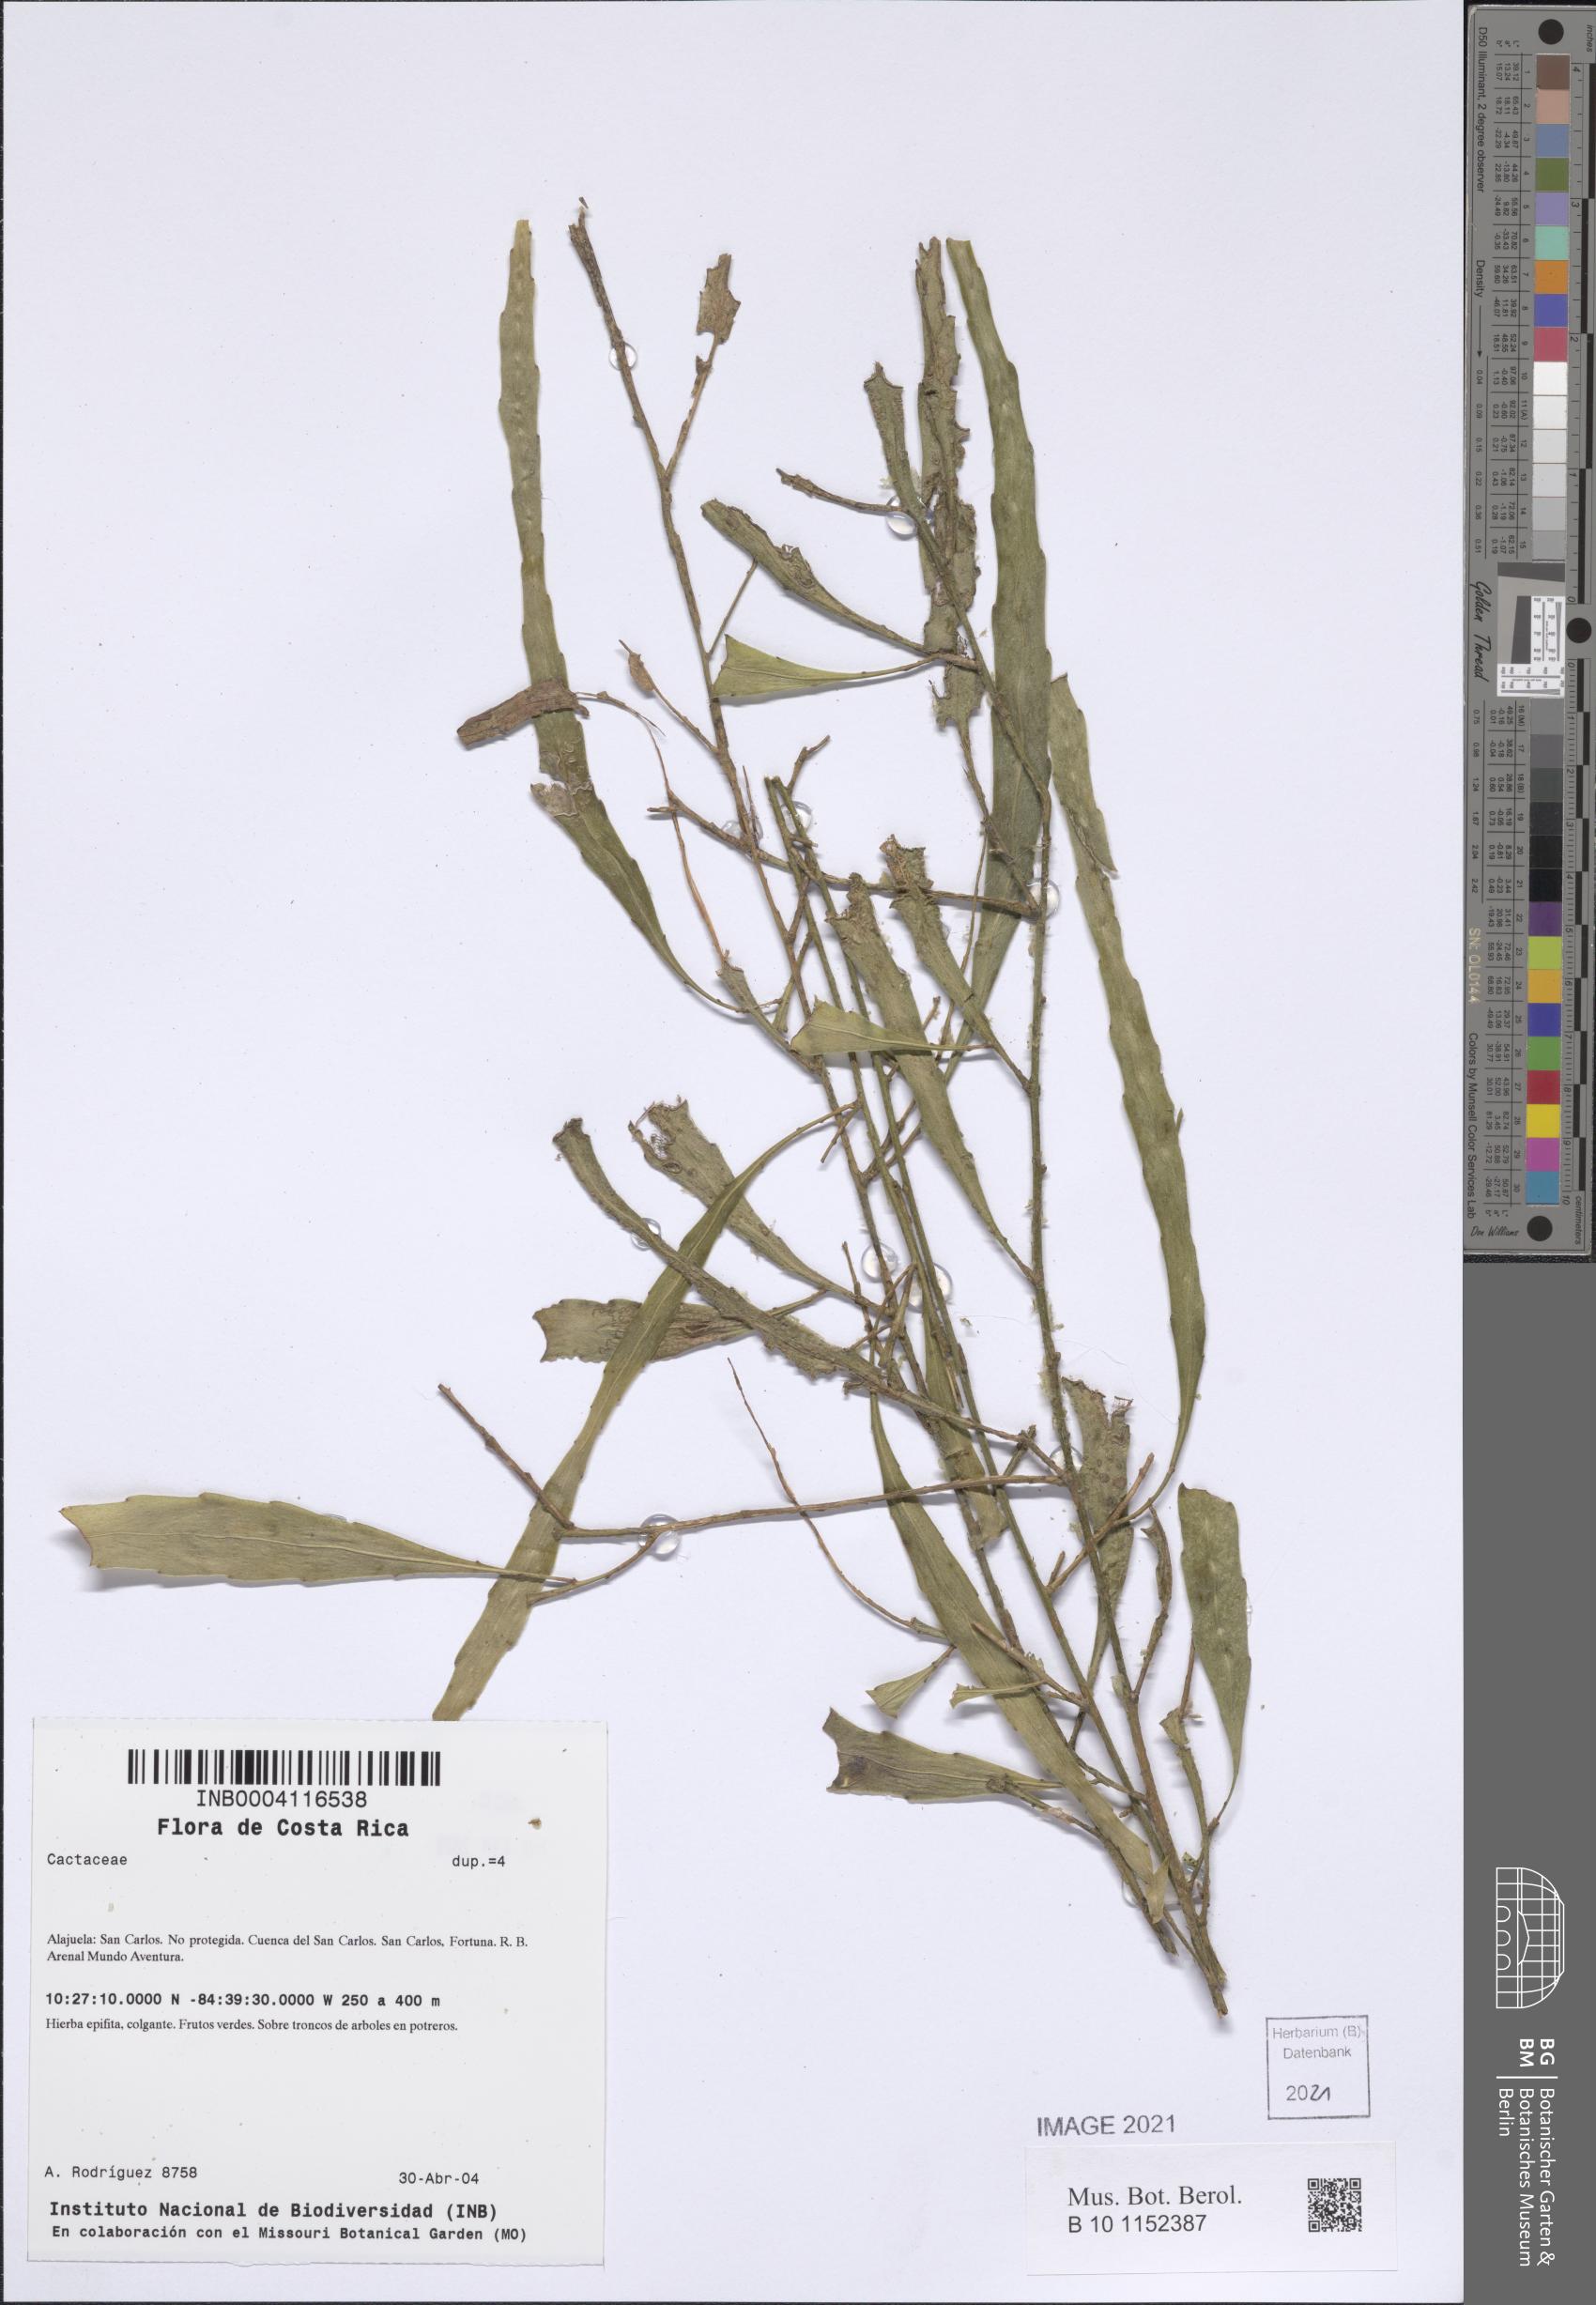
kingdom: Plantae
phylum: Tracheophyta
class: Magnoliopsida
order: Caryophyllales
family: Cactaceae
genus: Pseudorhipsalis
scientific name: Pseudorhipsalis ramulosa
